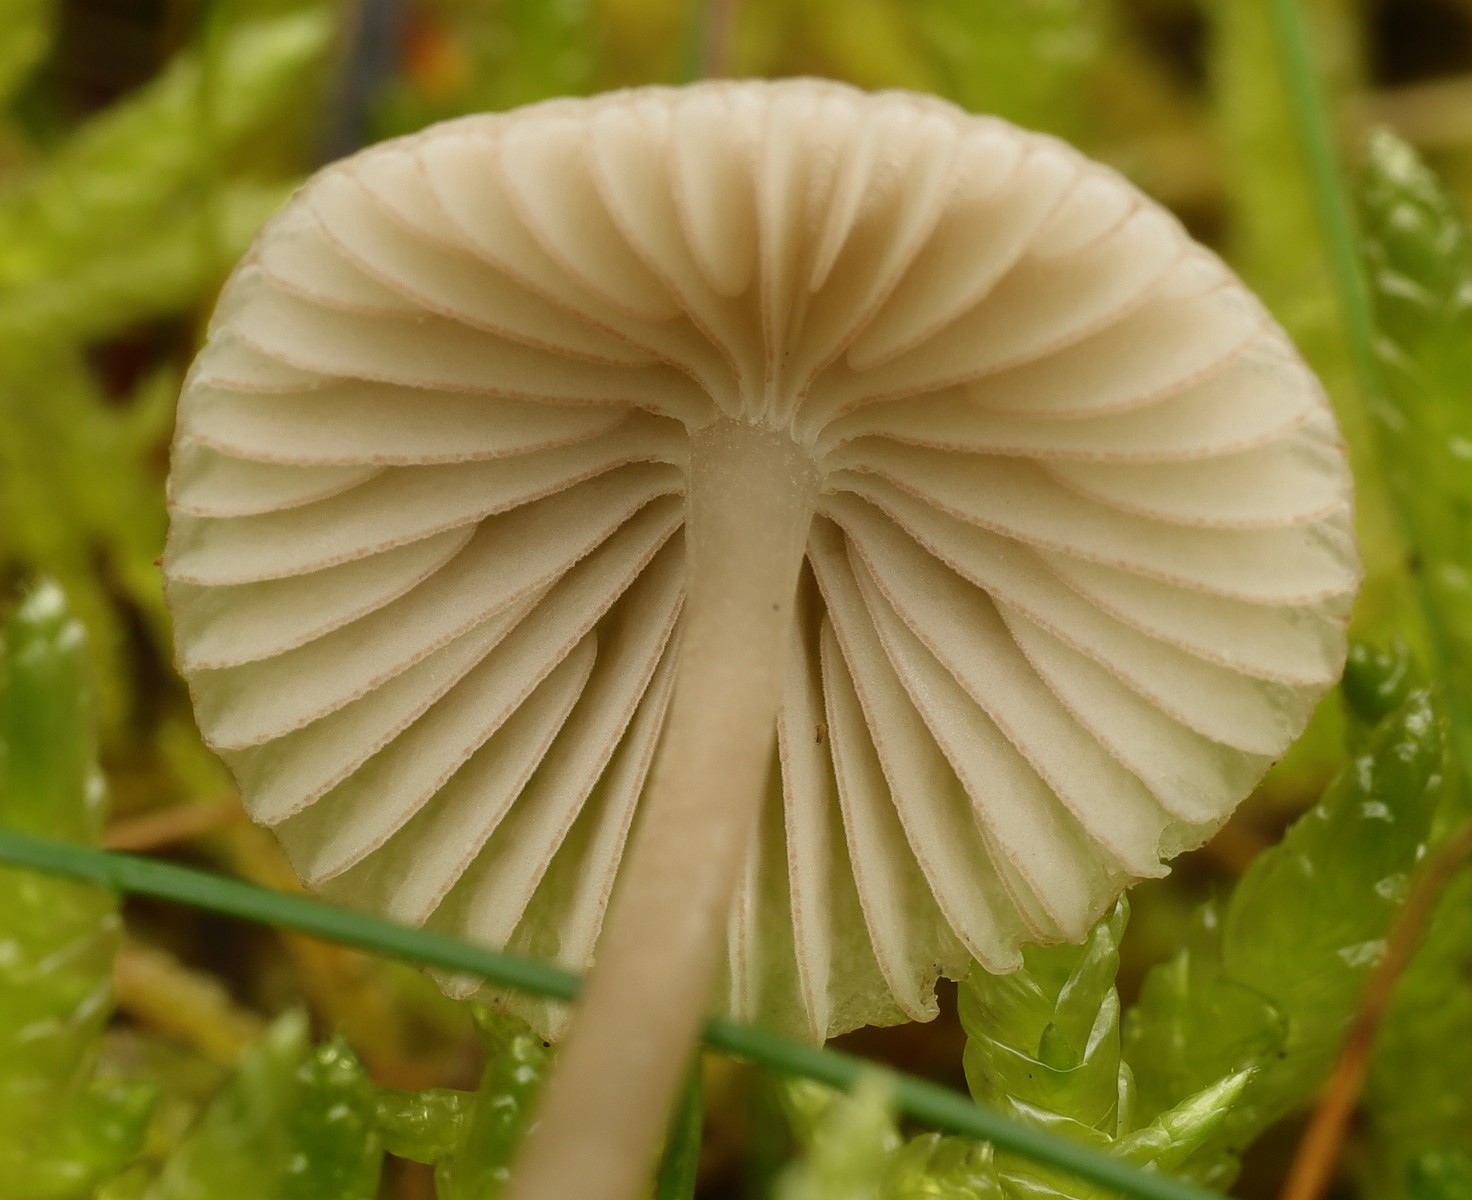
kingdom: Fungi
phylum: Basidiomycota
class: Agaricomycetes
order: Agaricales
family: Mycenaceae
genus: Mycena
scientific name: Mycena capillaripes
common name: nåle-huesvamp
